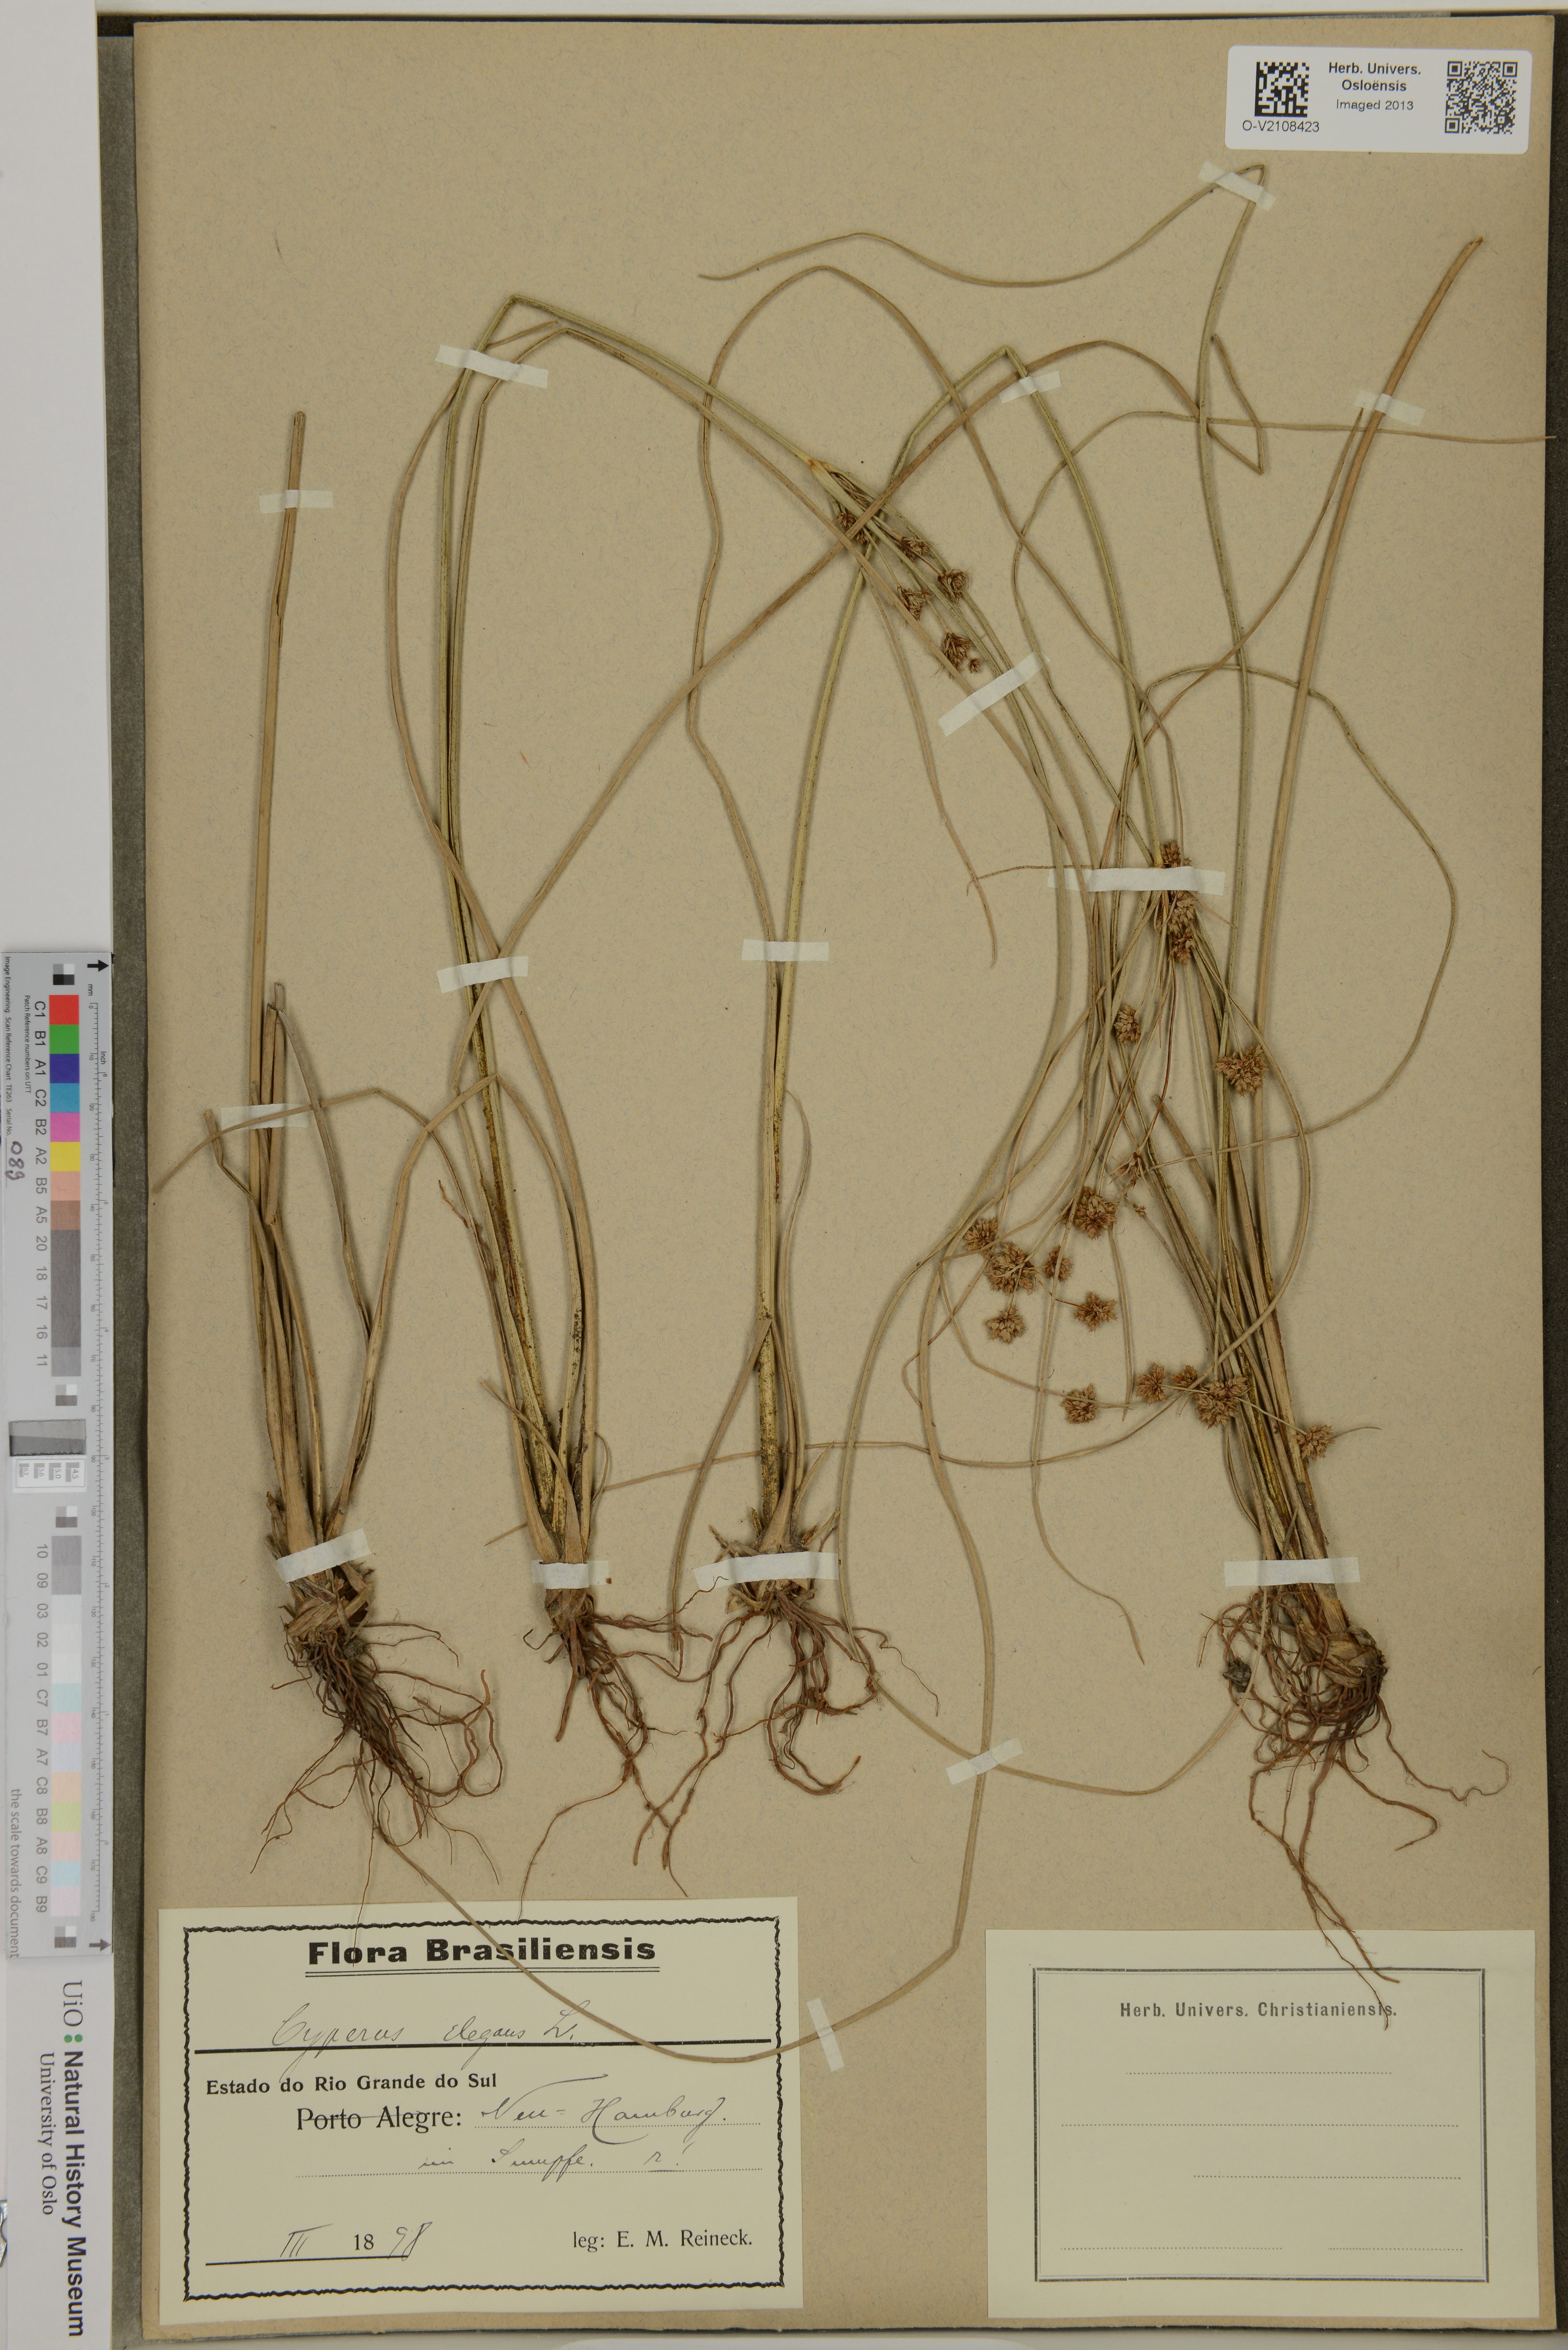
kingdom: Plantae
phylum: Tracheophyta
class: Liliopsida
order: Poales
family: Cyperaceae
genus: Cyperus
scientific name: Cyperus elegans
